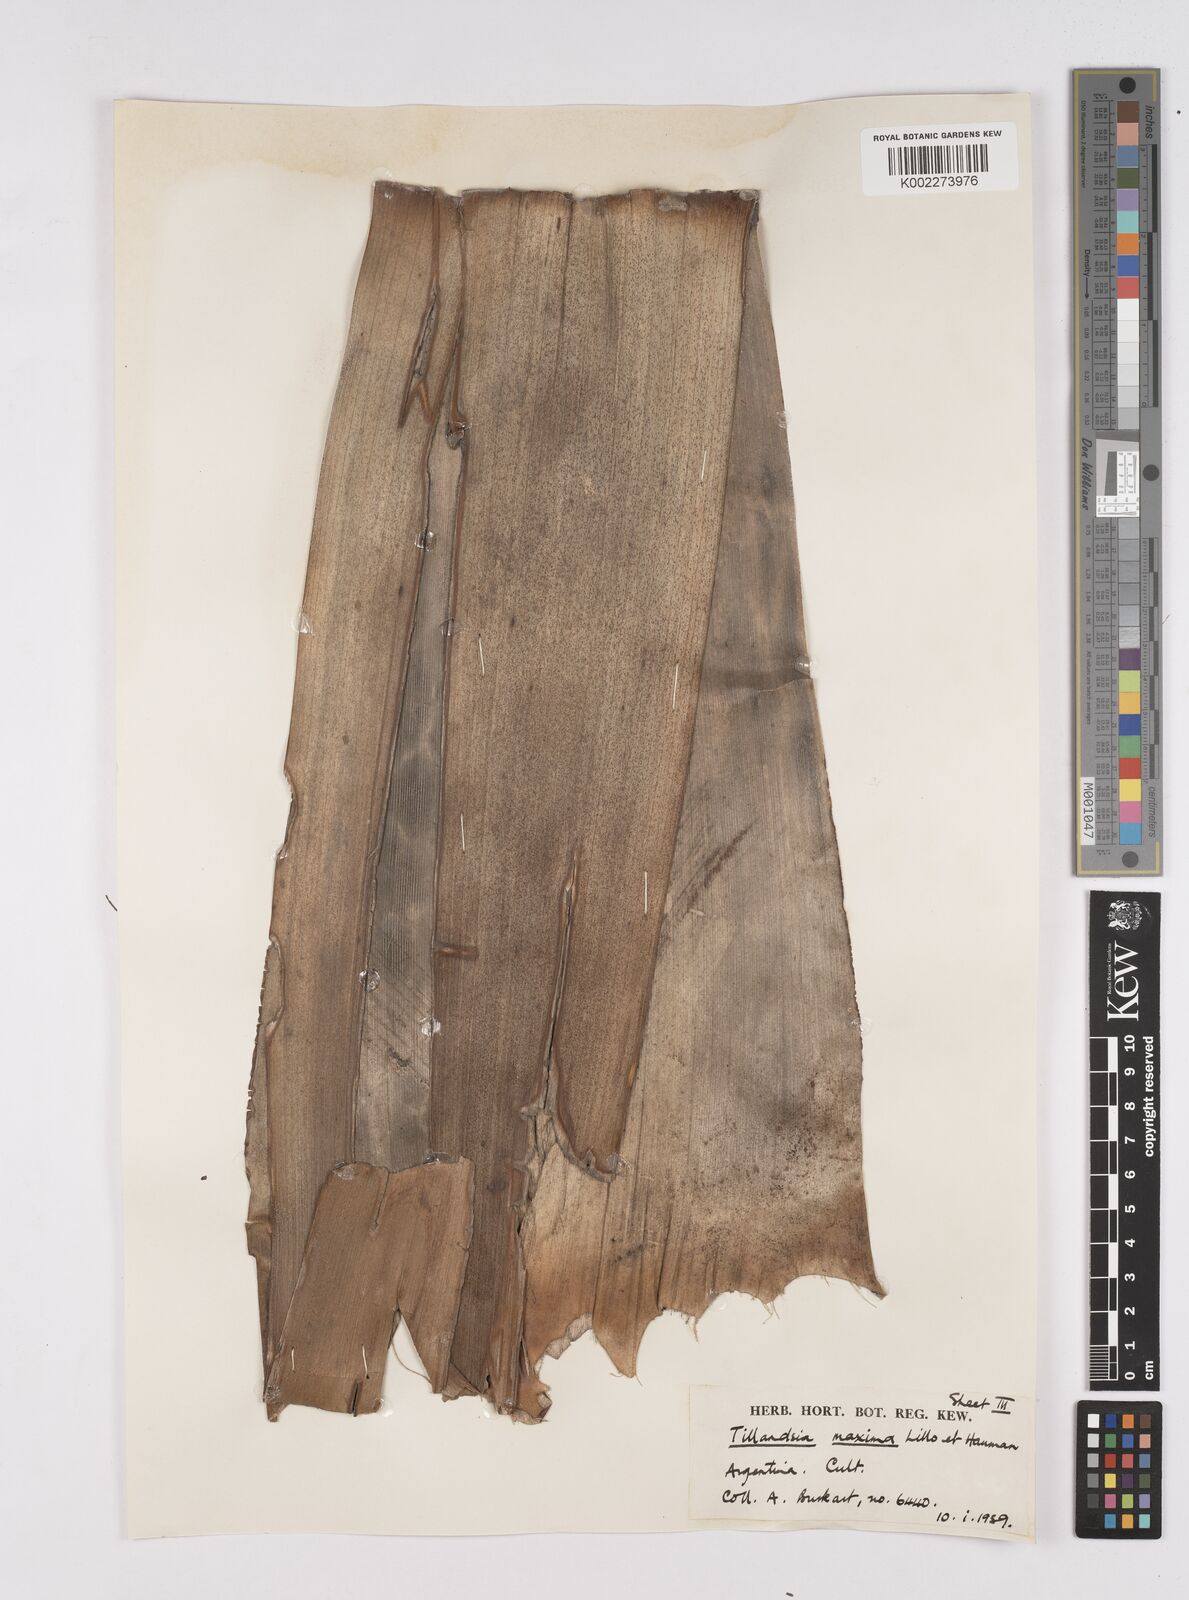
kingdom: Plantae
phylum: Tracheophyta
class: Liliopsida
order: Poales
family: Bromeliaceae
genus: Tillandsia
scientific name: Tillandsia
